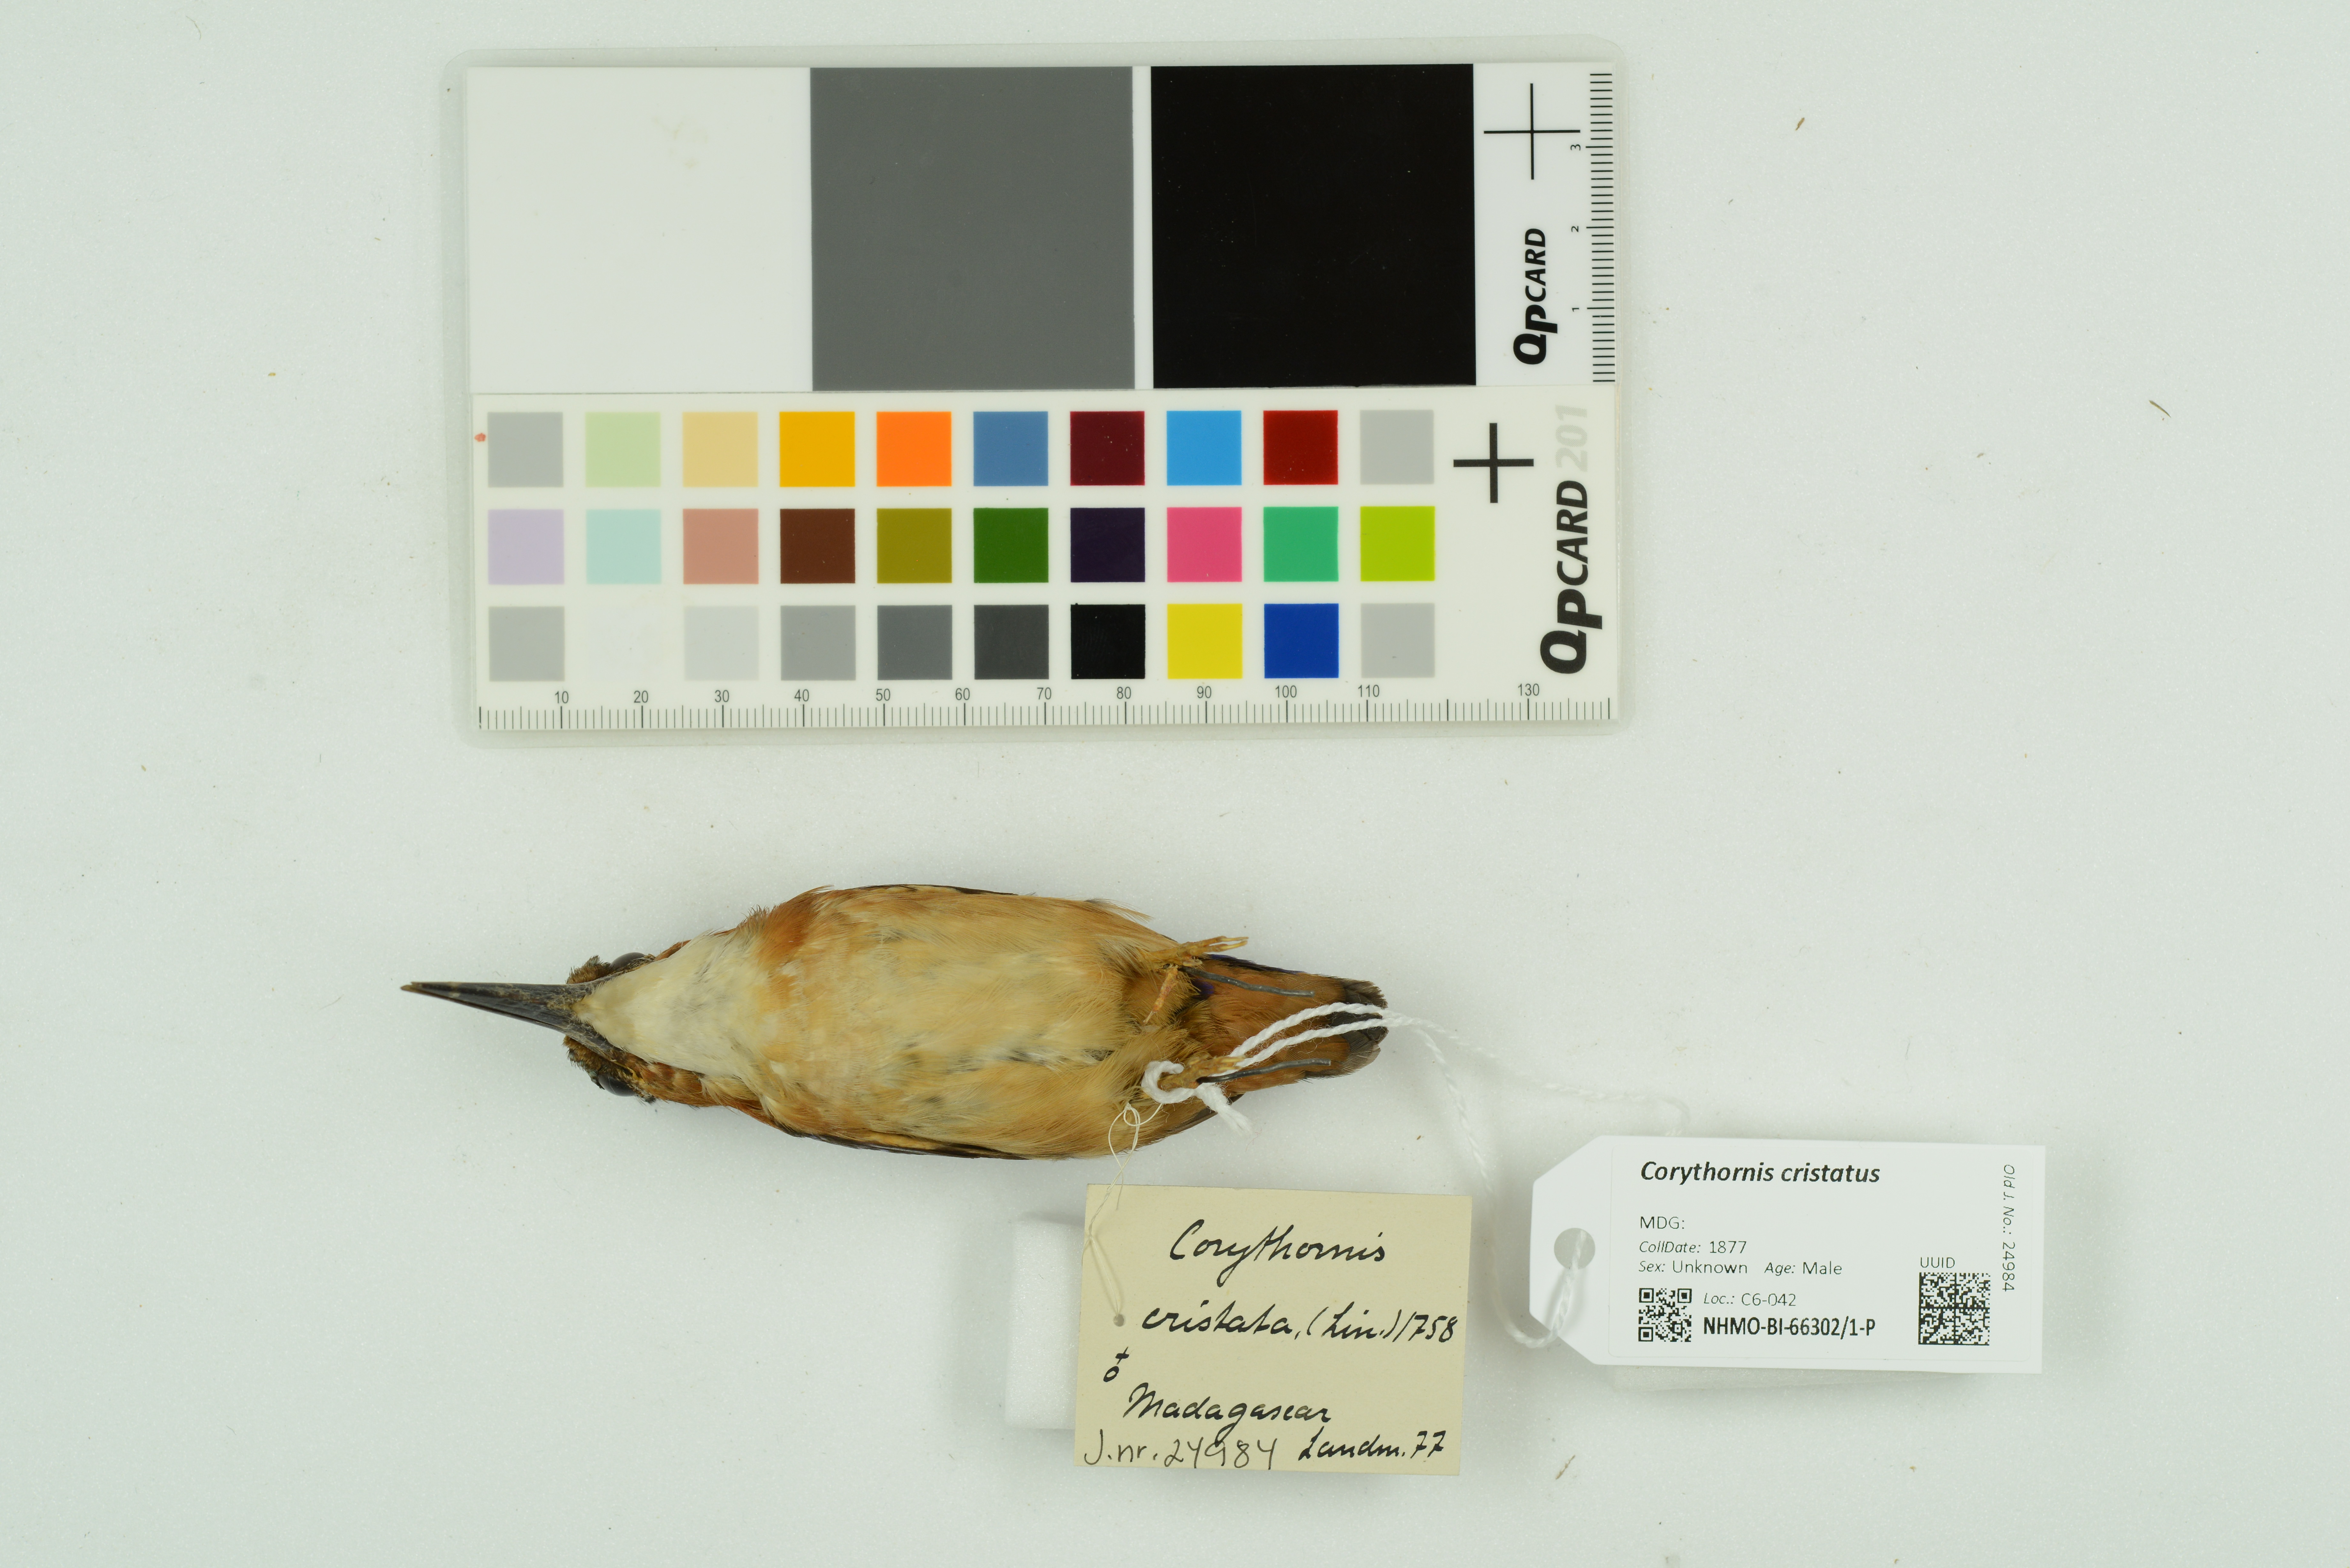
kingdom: Animalia
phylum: Chordata
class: Aves
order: Coraciiformes
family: Alcedinidae
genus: Corythornis
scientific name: Corythornis cristatus
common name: Malachite kingfisher
